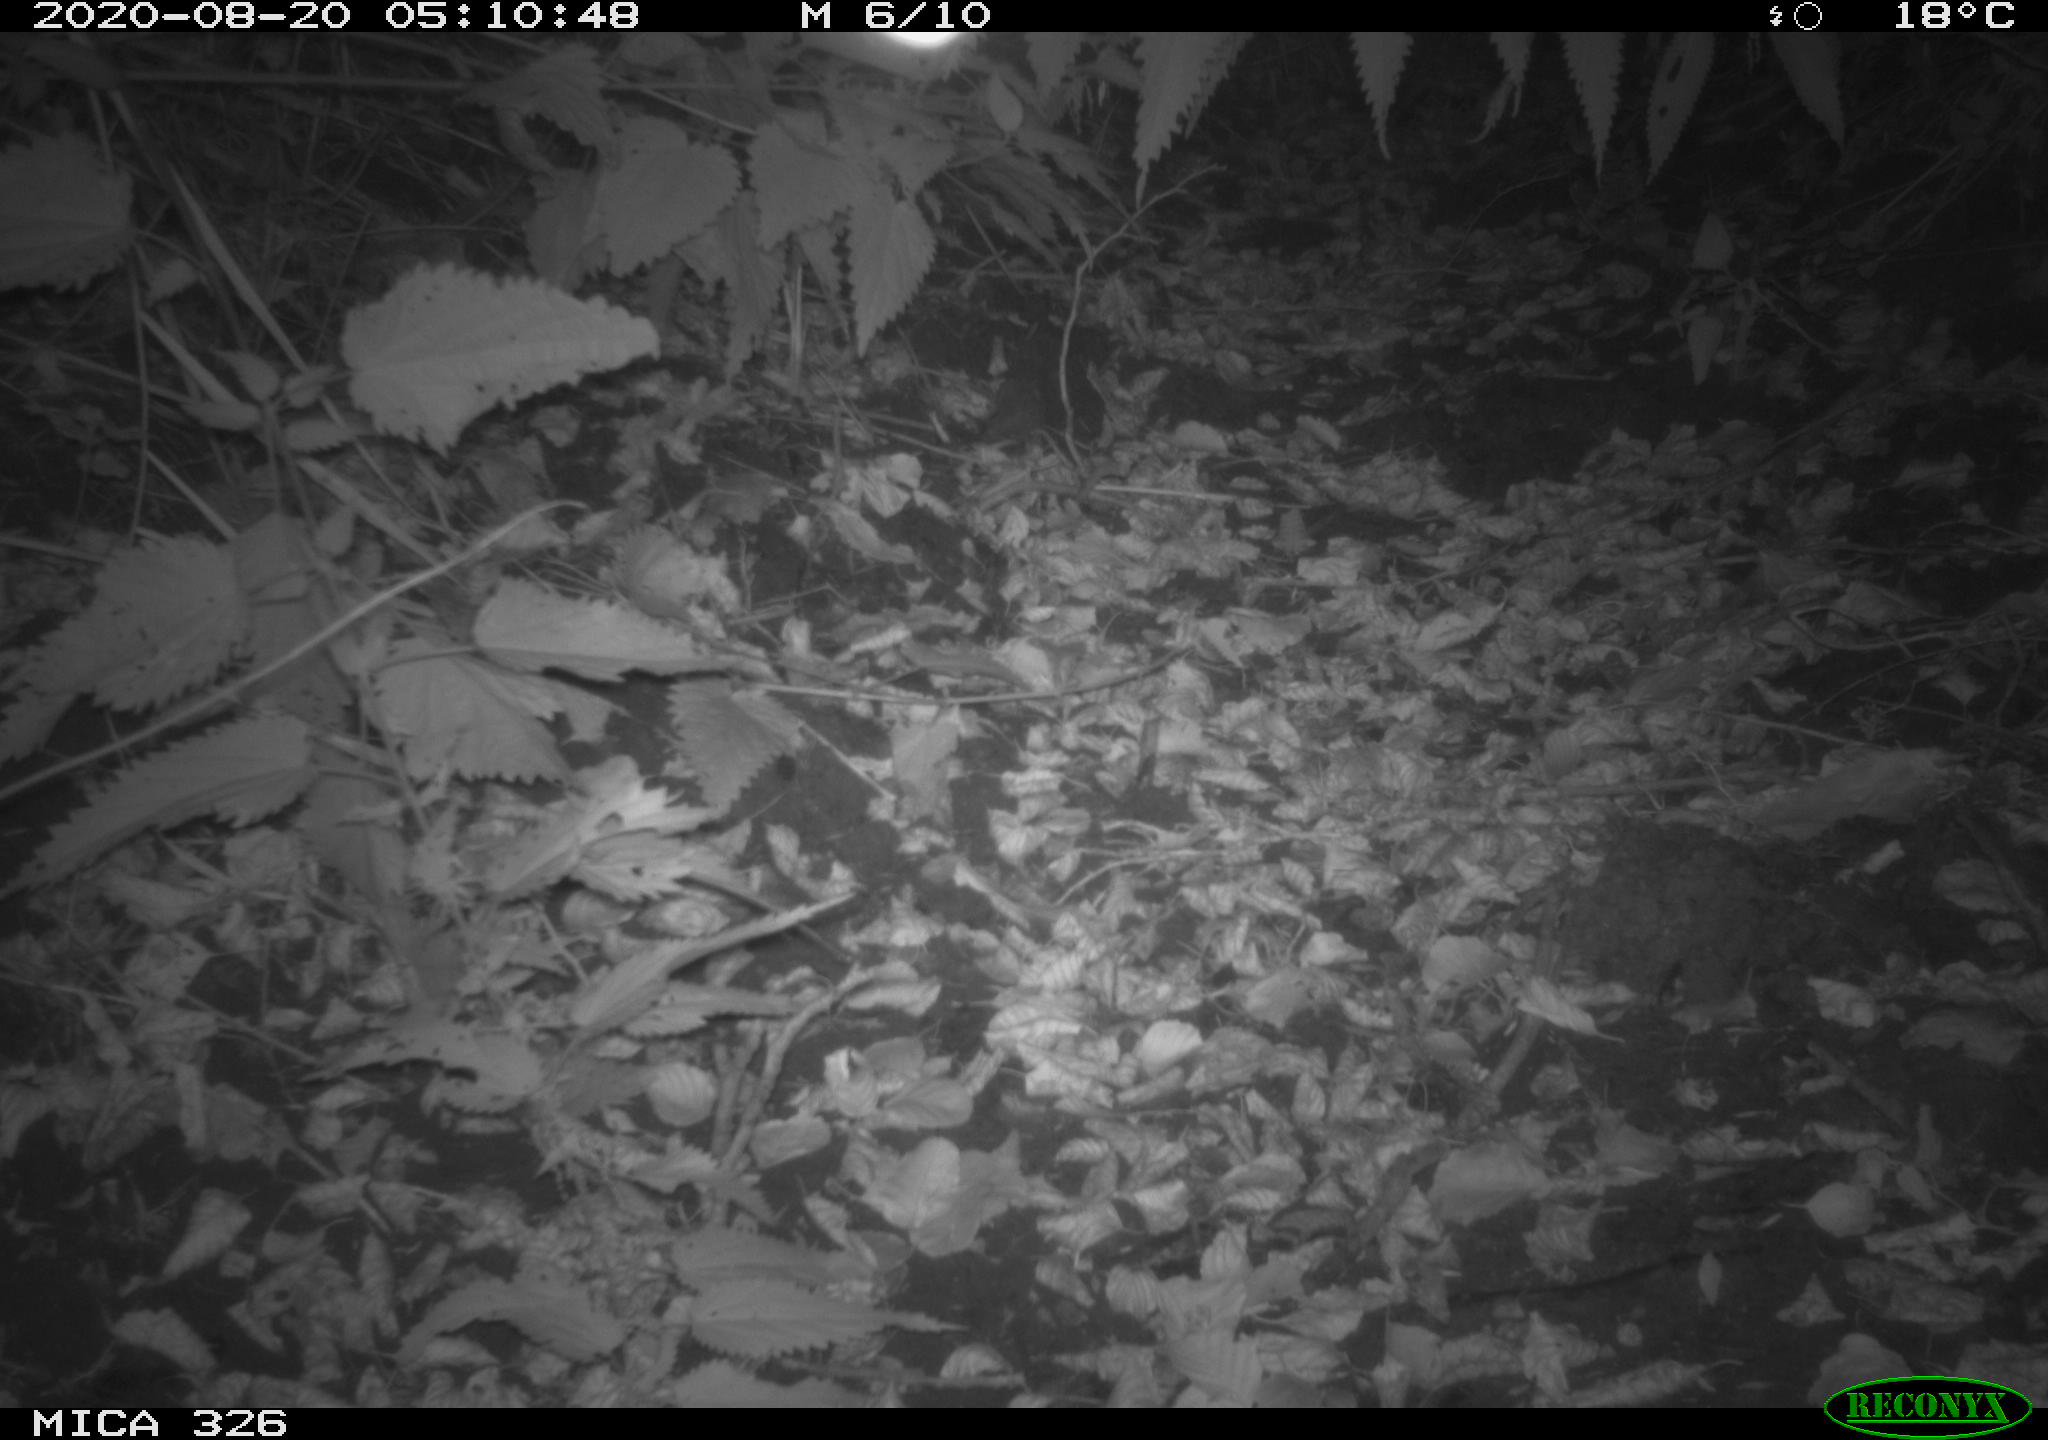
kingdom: Animalia
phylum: Chordata
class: Mammalia
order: Rodentia
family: Muridae
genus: Rattus
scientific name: Rattus norvegicus
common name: Brown rat
